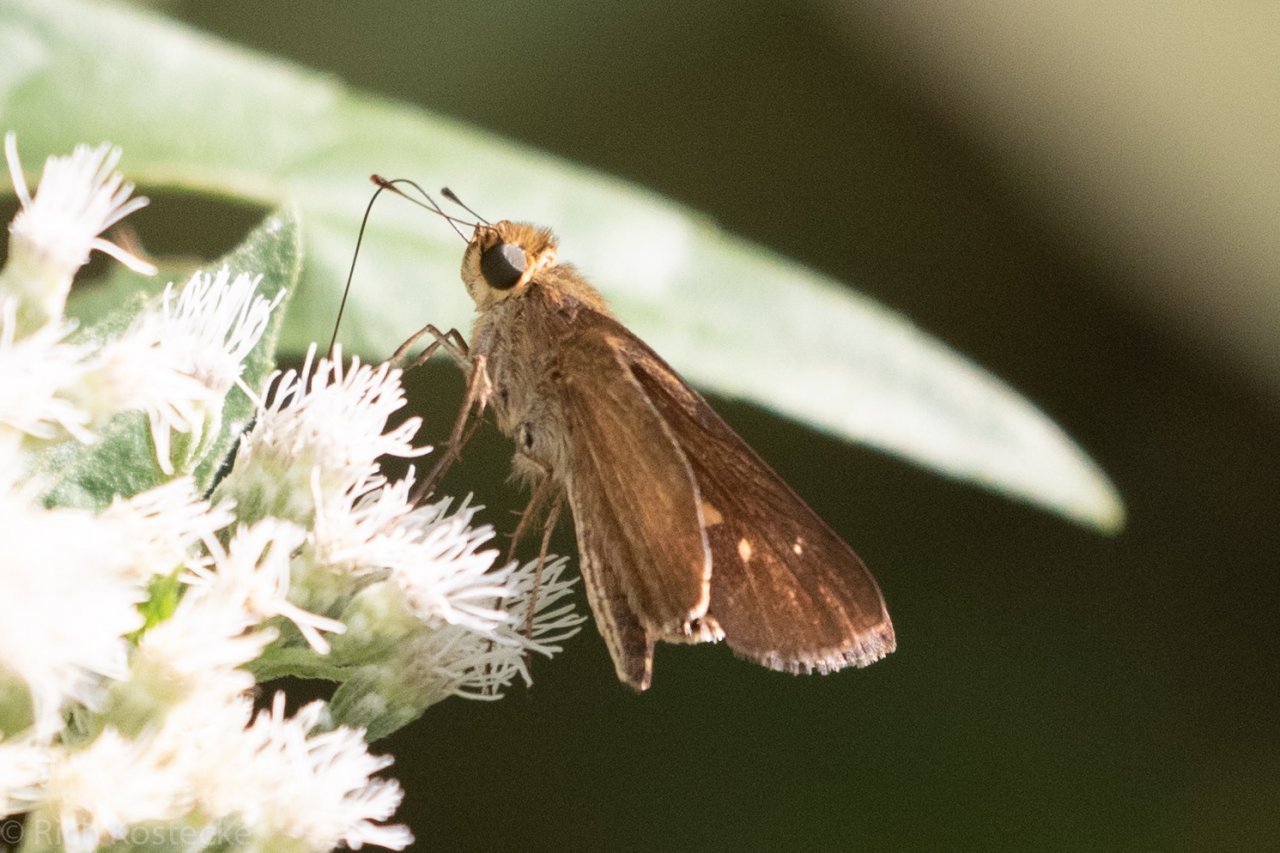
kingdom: Animalia
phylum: Arthropoda
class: Insecta
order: Lepidoptera
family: Hesperiidae
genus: Panoquina
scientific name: Panoquina ocola
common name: Ocola Skipper
